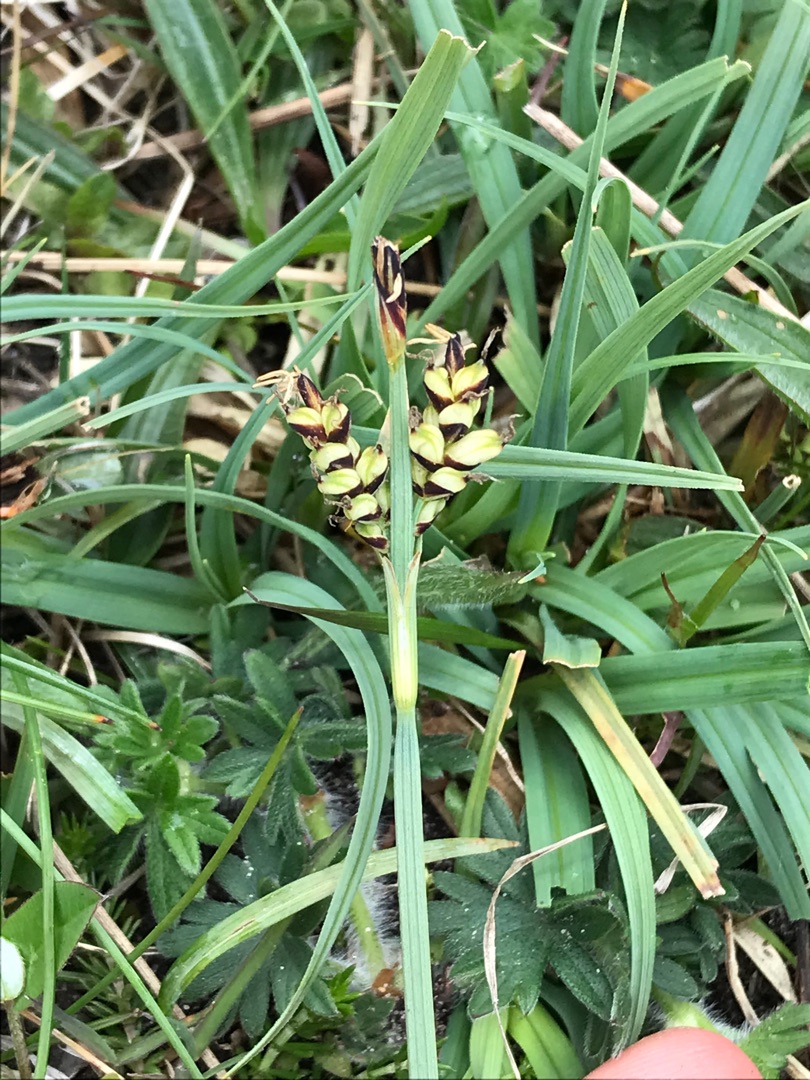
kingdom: Plantae
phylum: Tracheophyta
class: Liliopsida
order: Poales
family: Cyperaceae
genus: Carex
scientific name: Carex panicea
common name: Hirse-star
